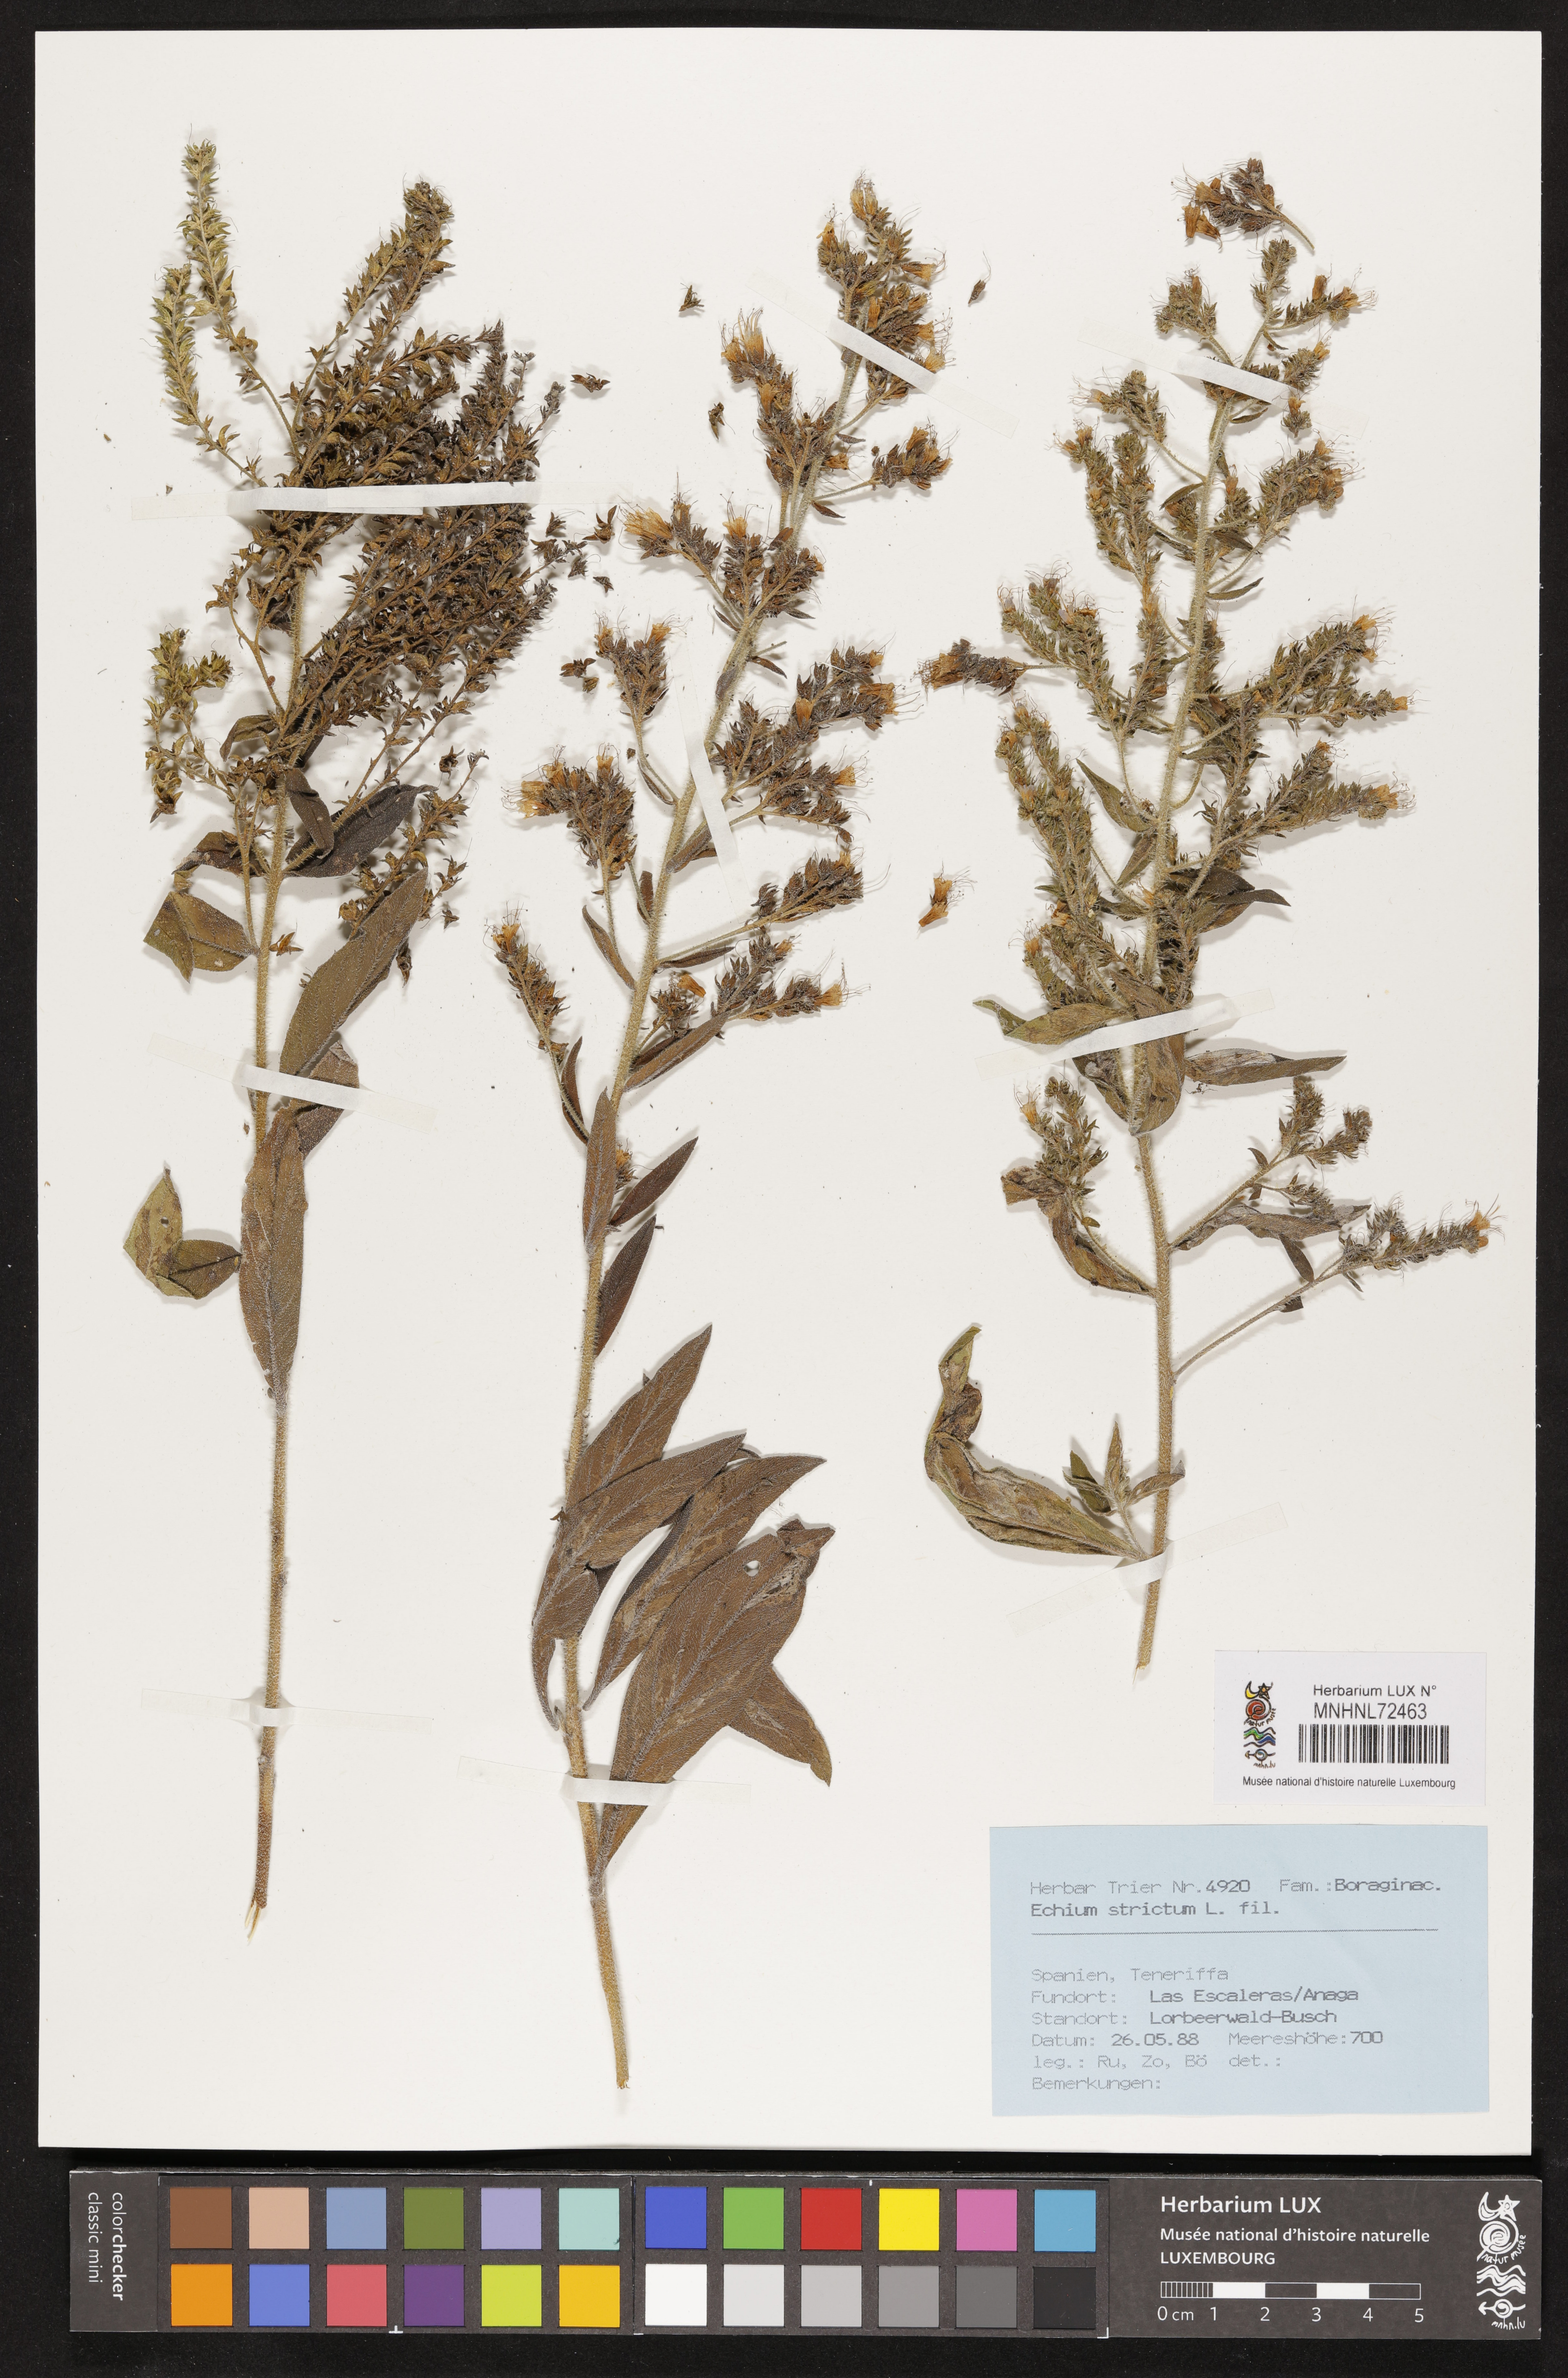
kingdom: Plantae
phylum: Tracheophyta
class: Magnoliopsida
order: Boraginales
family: Boraginaceae
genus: Echium
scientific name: Echium strictum
